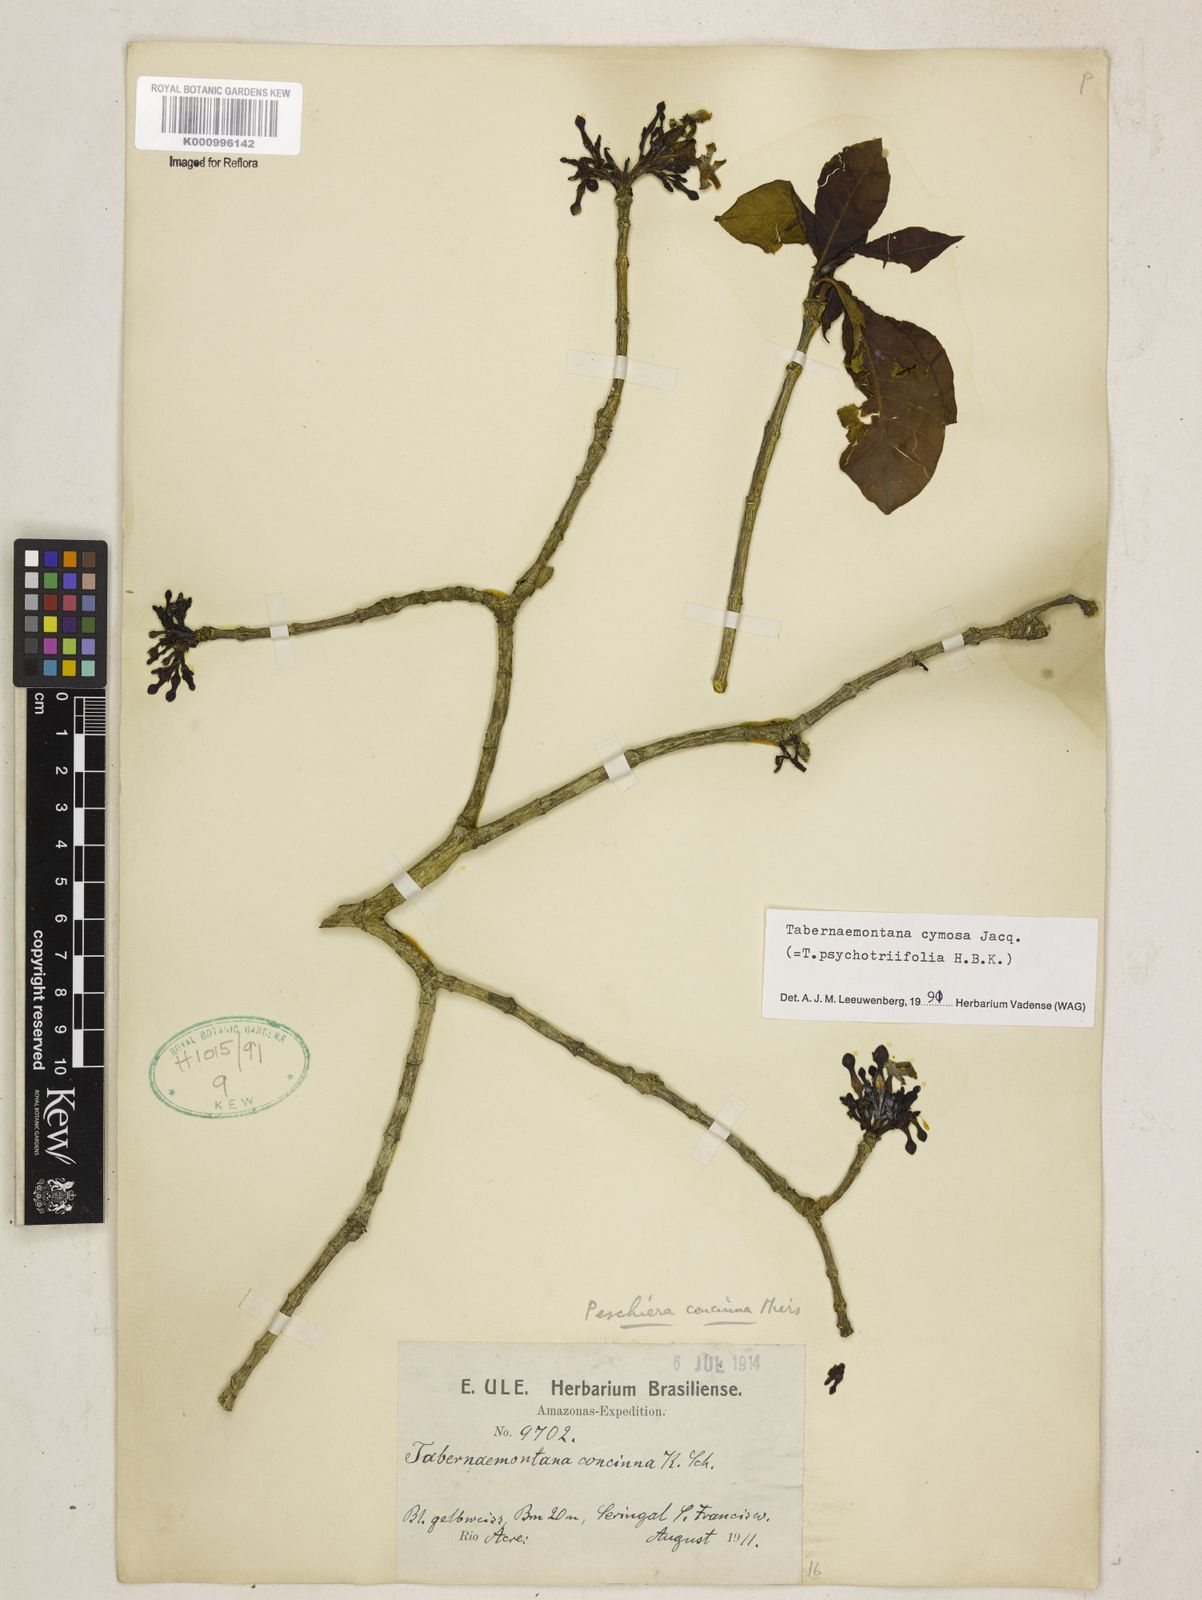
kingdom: Plantae
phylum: Tracheophyta
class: Magnoliopsida
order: Gentianales
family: Apocynaceae
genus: Tabernaemontana
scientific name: Tabernaemontana cymosa
